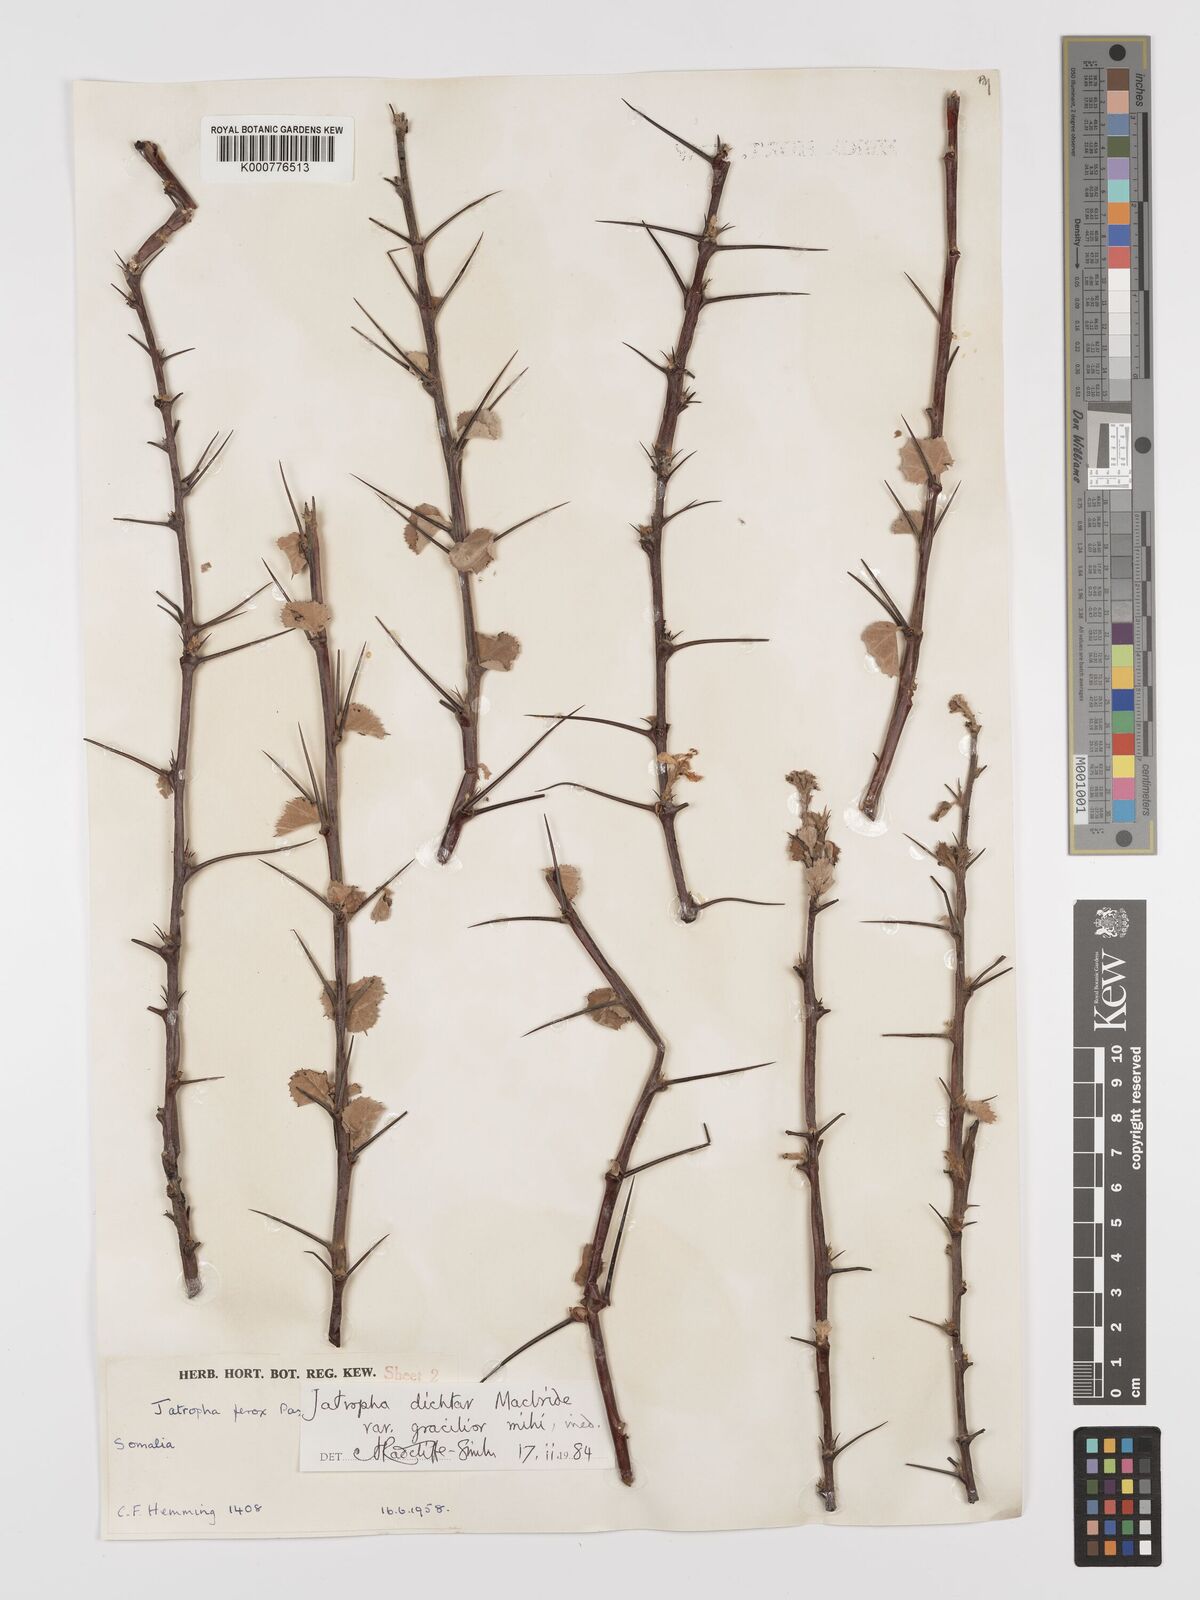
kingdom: Plantae
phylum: Tracheophyta
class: Magnoliopsida
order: Malpighiales
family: Euphorbiaceae
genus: Jatropha
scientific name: Jatropha dichtar
